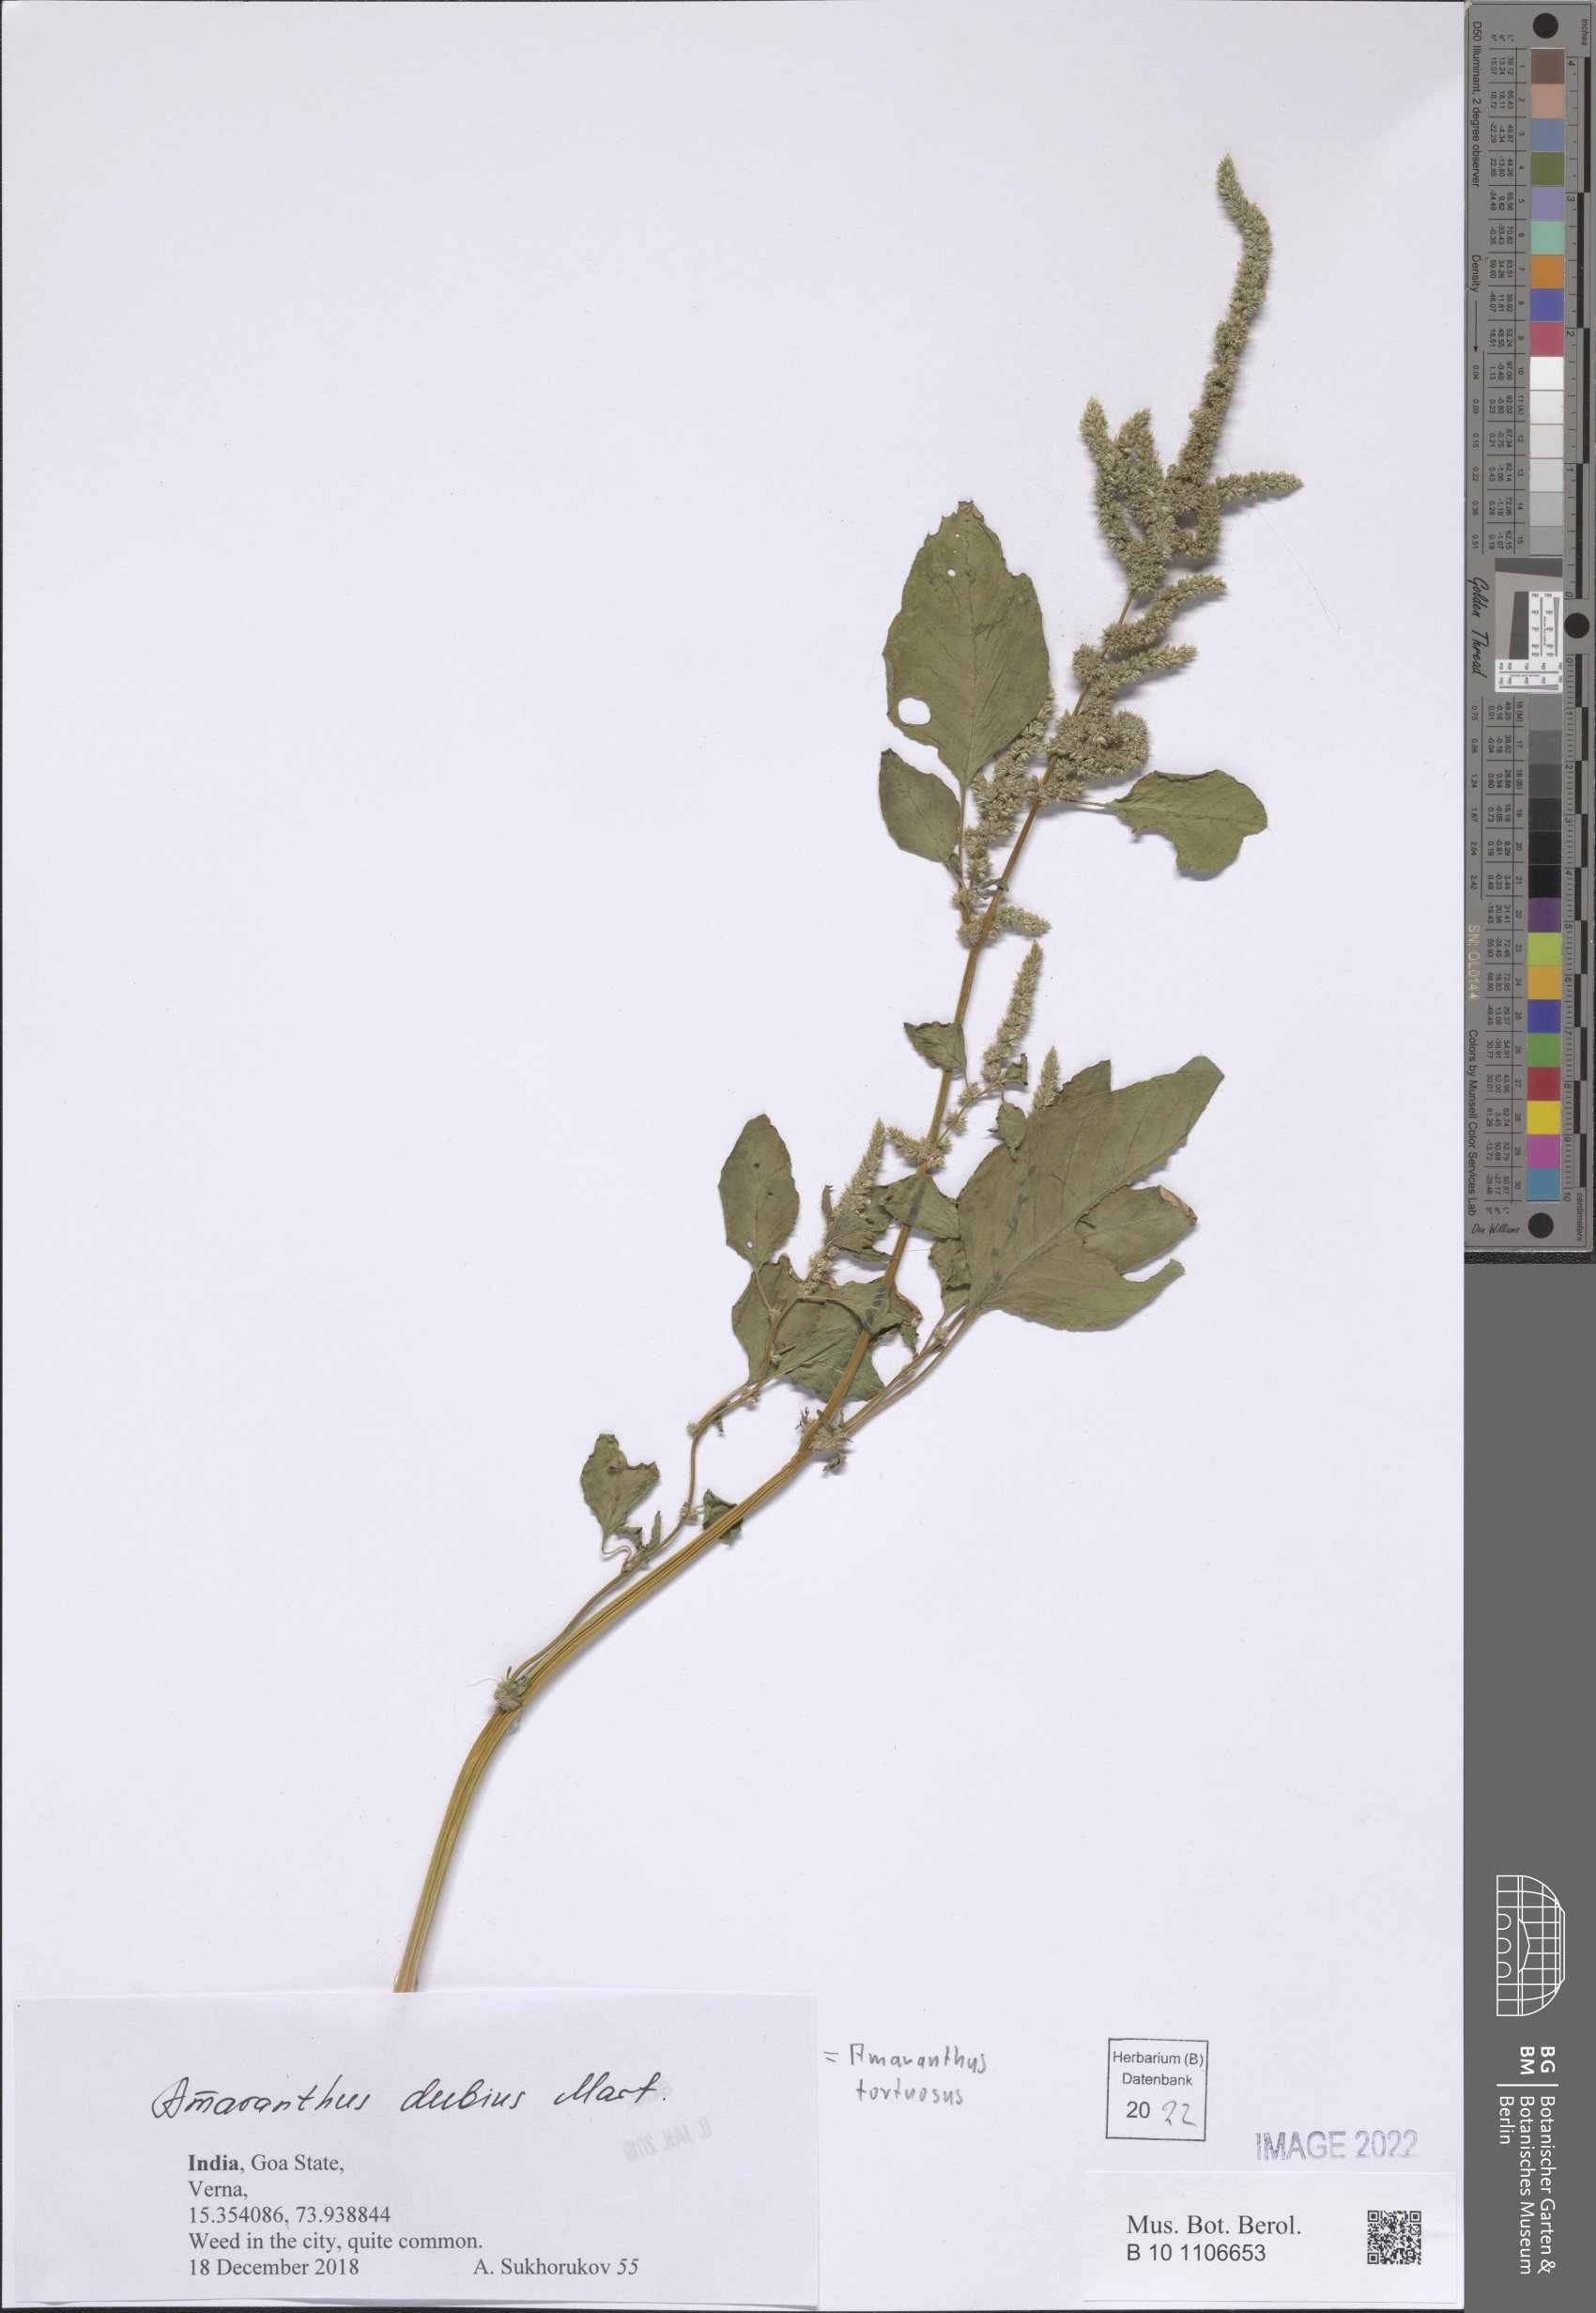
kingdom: Plantae
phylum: Tracheophyta
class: Magnoliopsida
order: Caryophyllales
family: Amaranthaceae
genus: Amaranthus
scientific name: Amaranthus dubius
